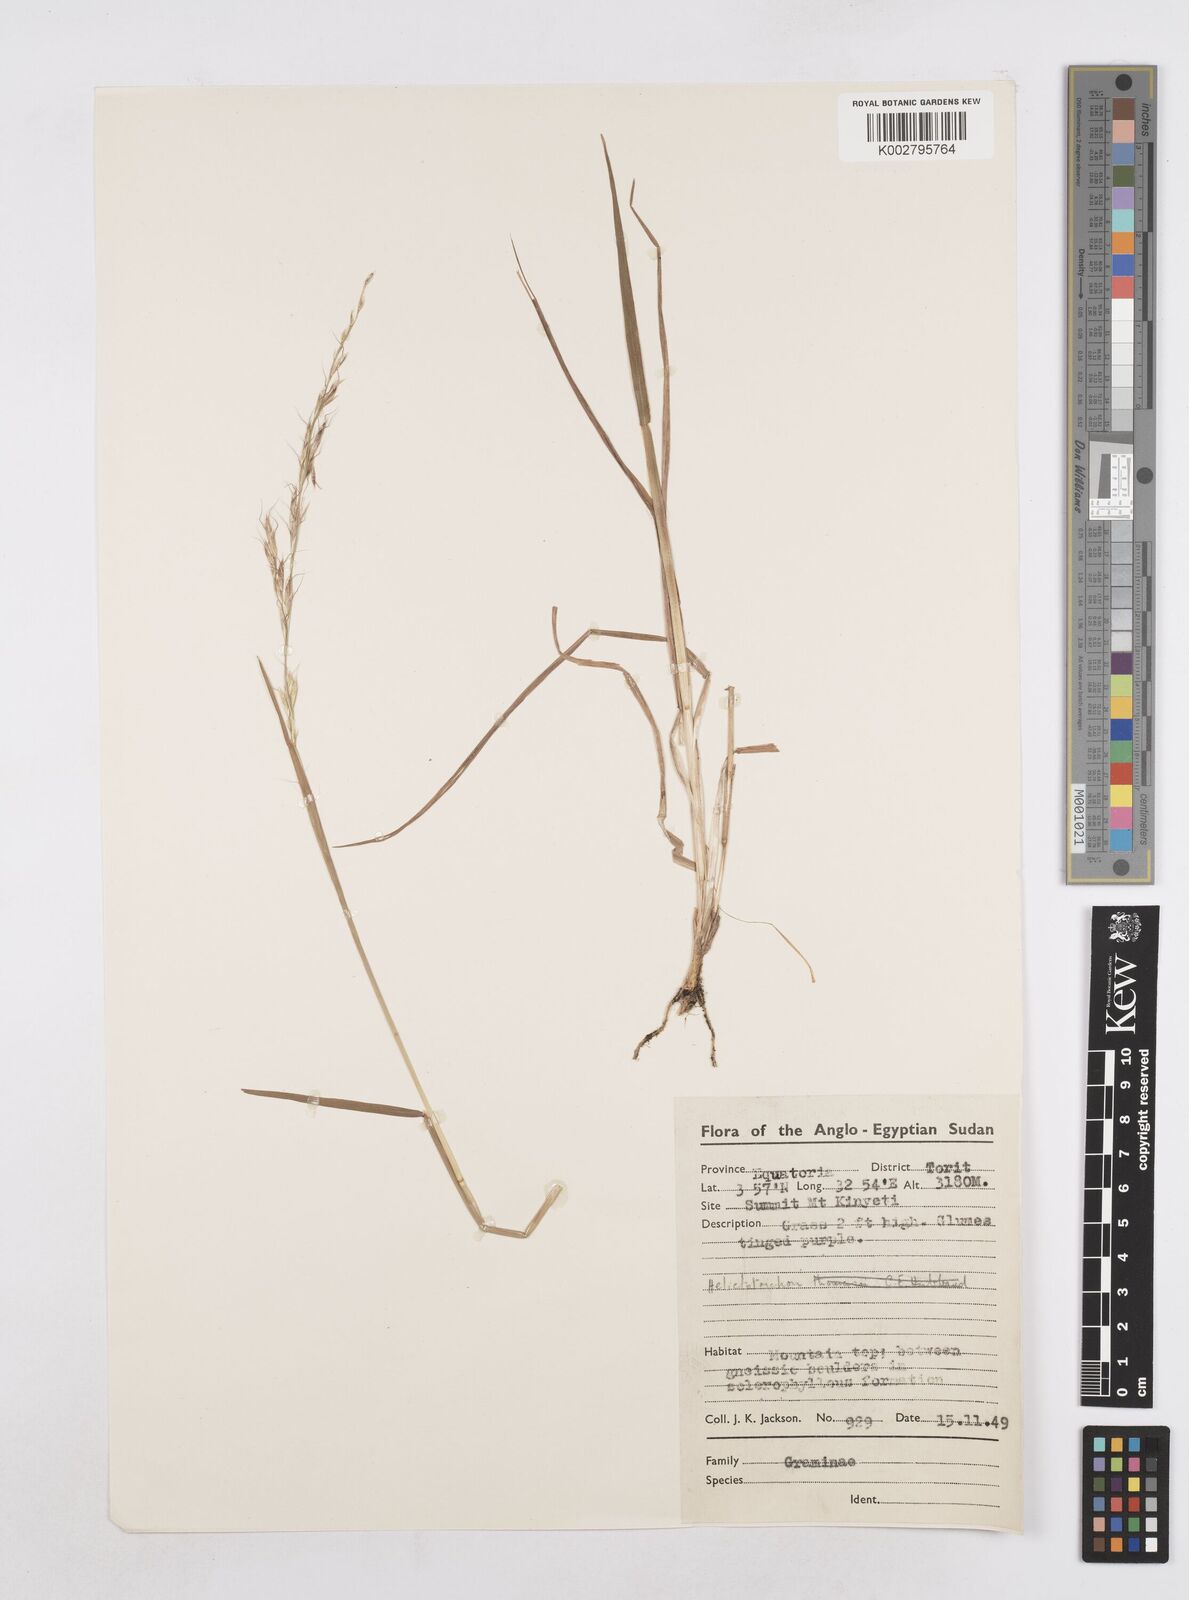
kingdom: Plantae
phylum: Tracheophyta
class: Liliopsida
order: Poales
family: Poaceae
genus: Trisetopsis
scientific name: Trisetopsis umbrosa
